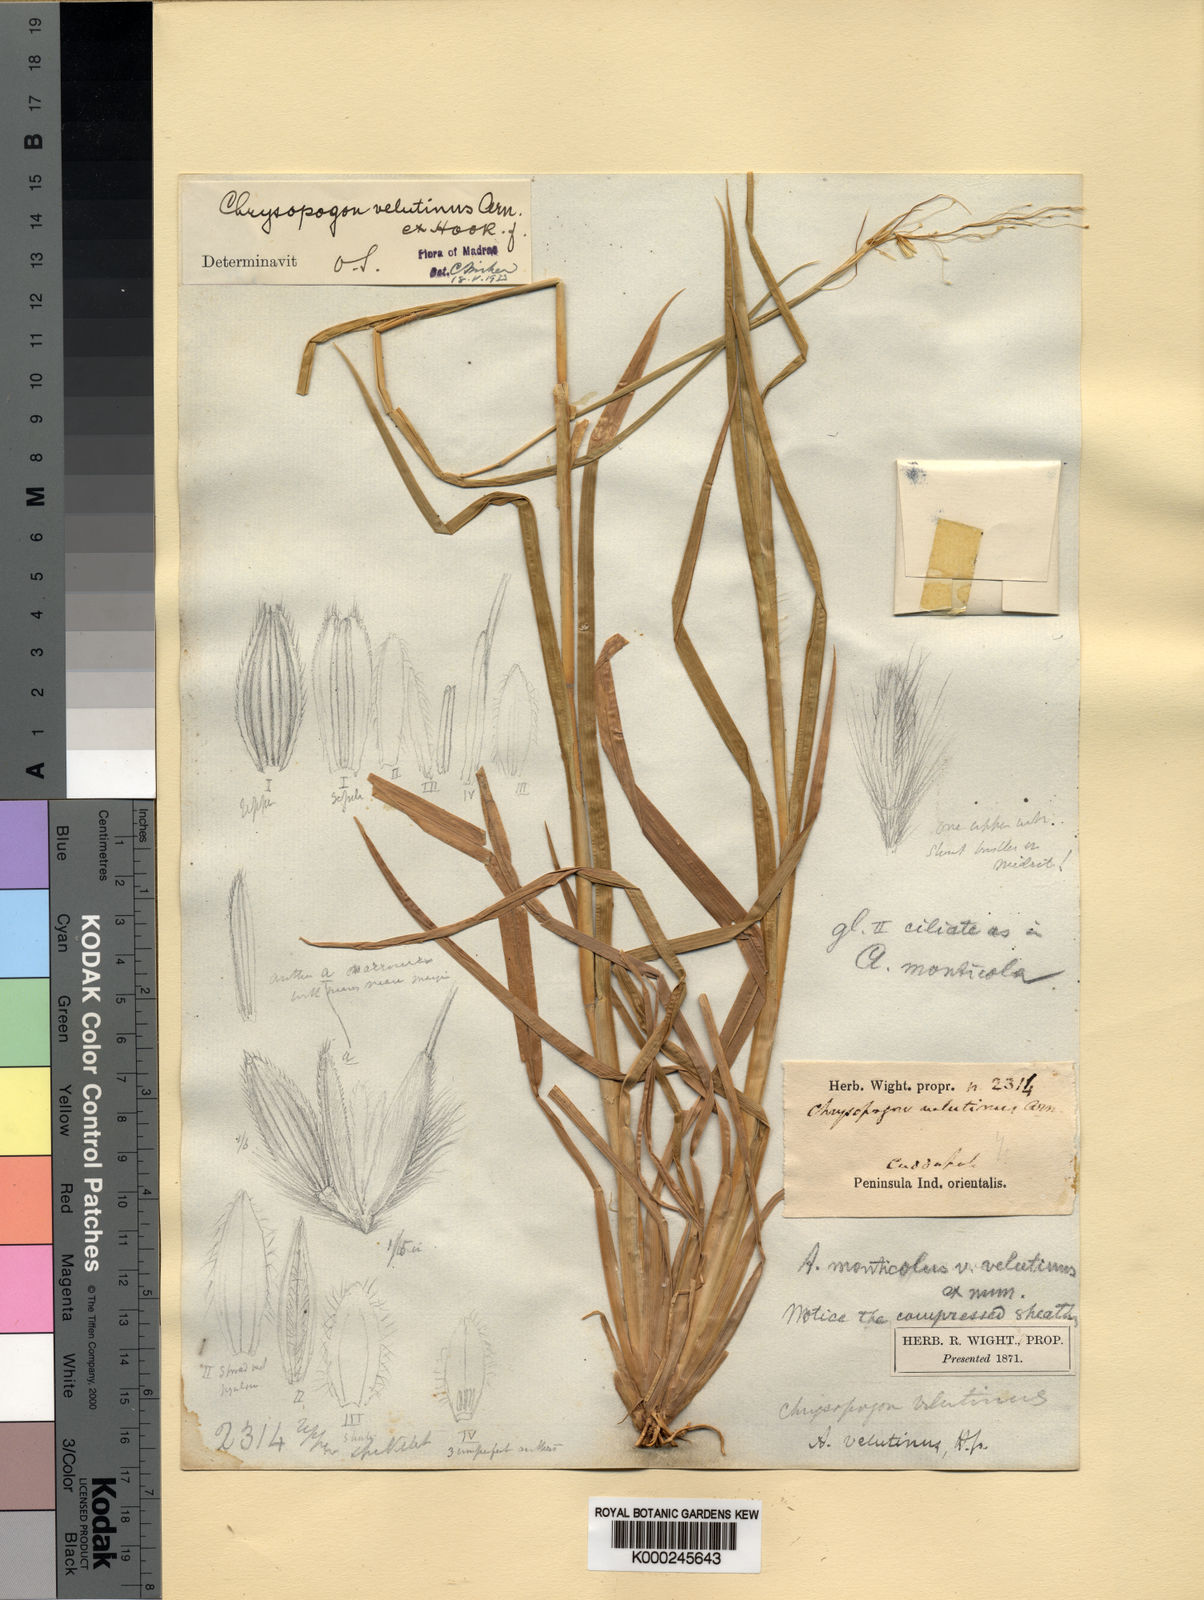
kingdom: Plantae
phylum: Tracheophyta
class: Liliopsida
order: Poales
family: Poaceae
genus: Chrysopogon
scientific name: Chrysopogon velutinus
